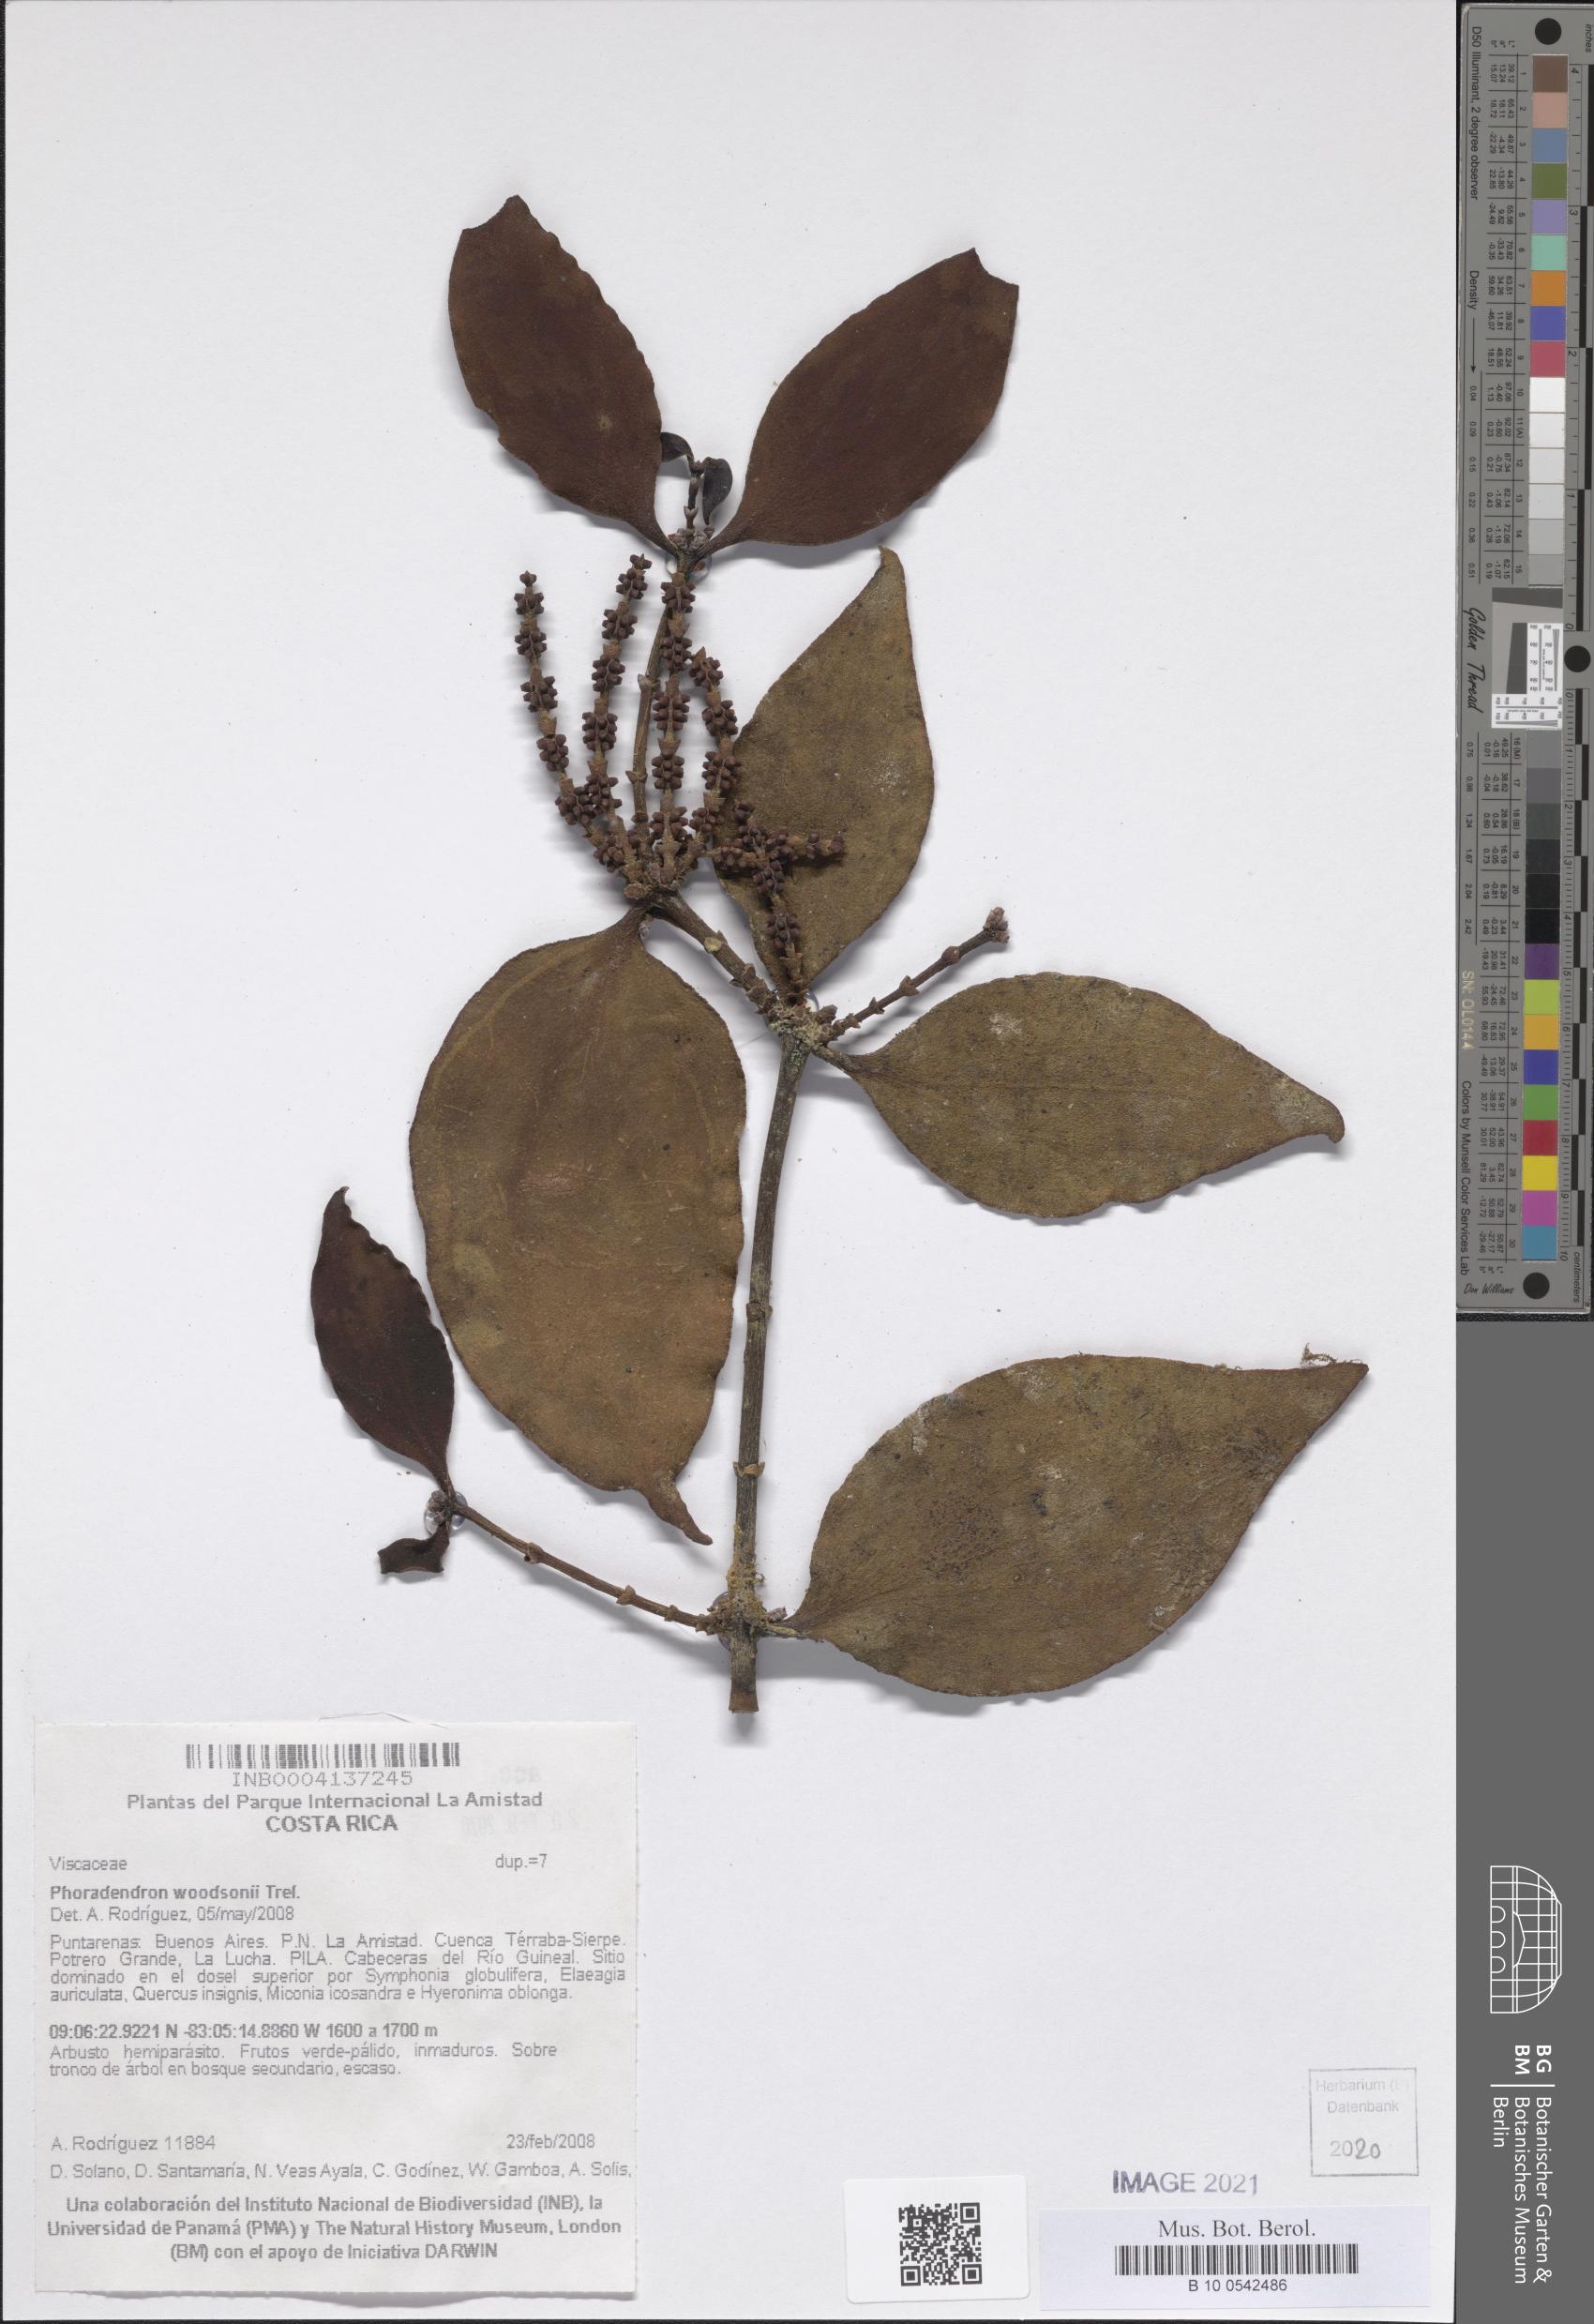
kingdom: Plantae
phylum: Tracheophyta
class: Magnoliopsida
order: Santalales
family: Viscaceae
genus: Phoradendron
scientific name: Phoradendron woodsonii
